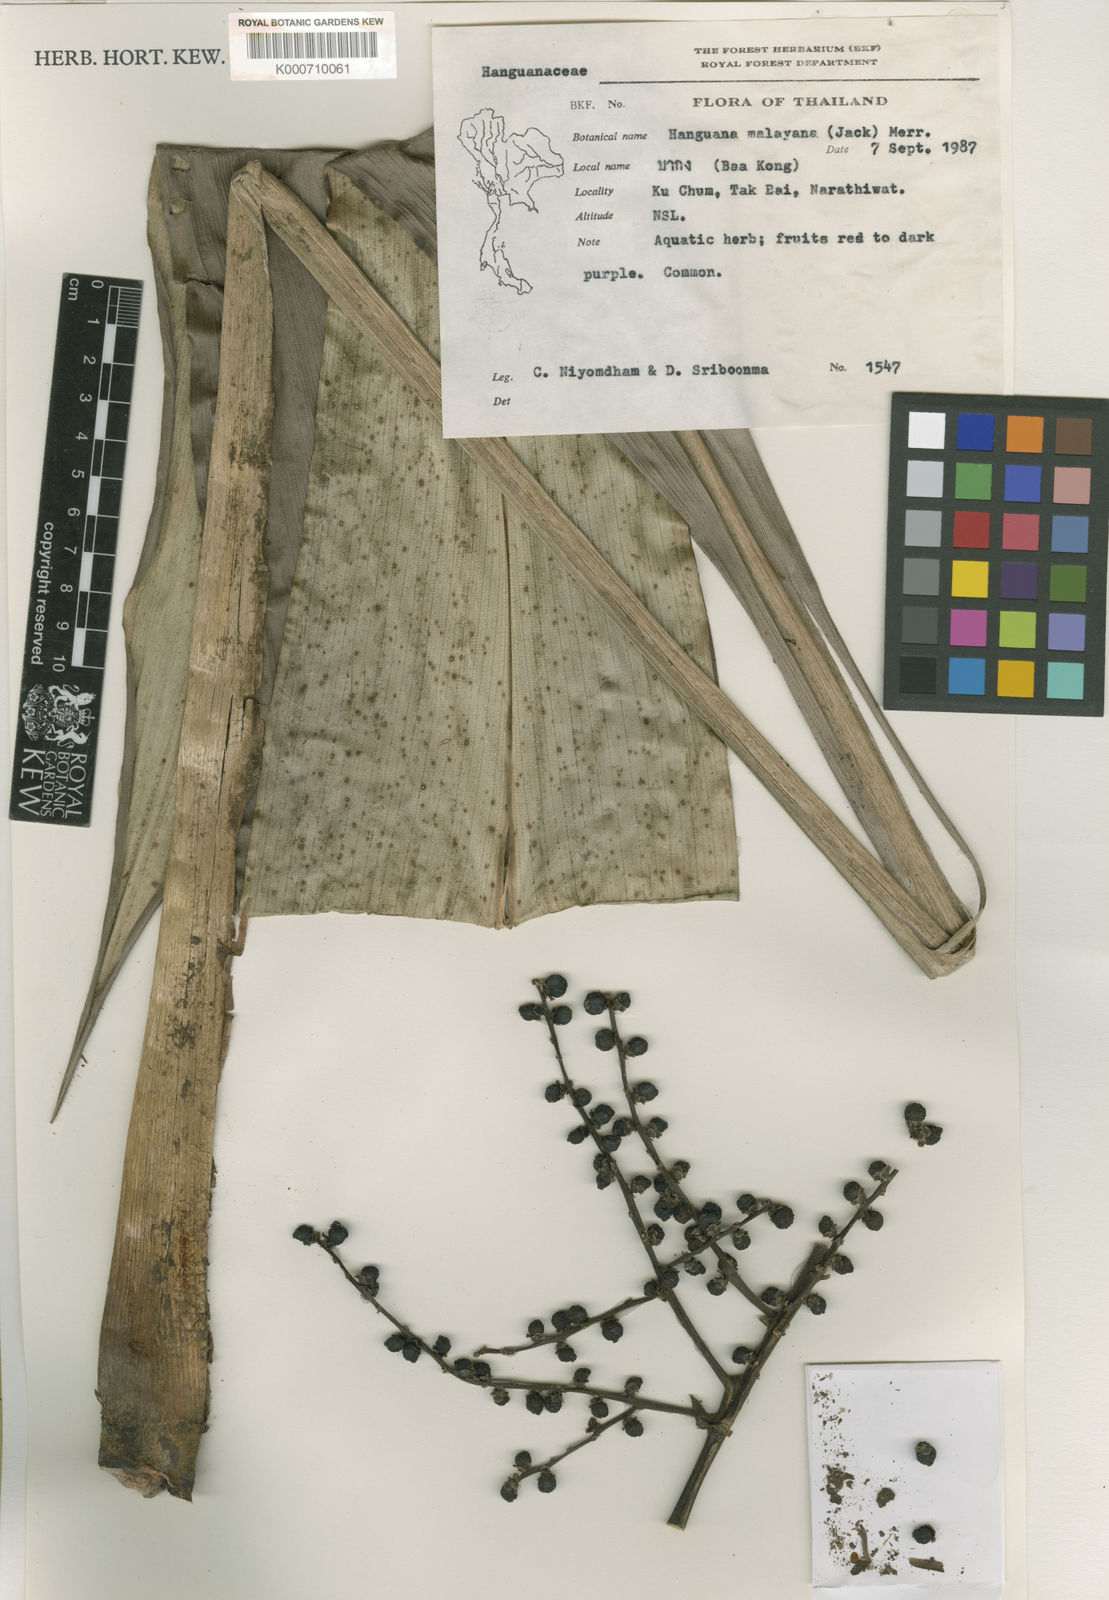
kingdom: Plantae
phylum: Tracheophyta
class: Liliopsida
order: Commelinales
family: Hanguanaceae
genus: Hanguana
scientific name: Hanguana malayana
